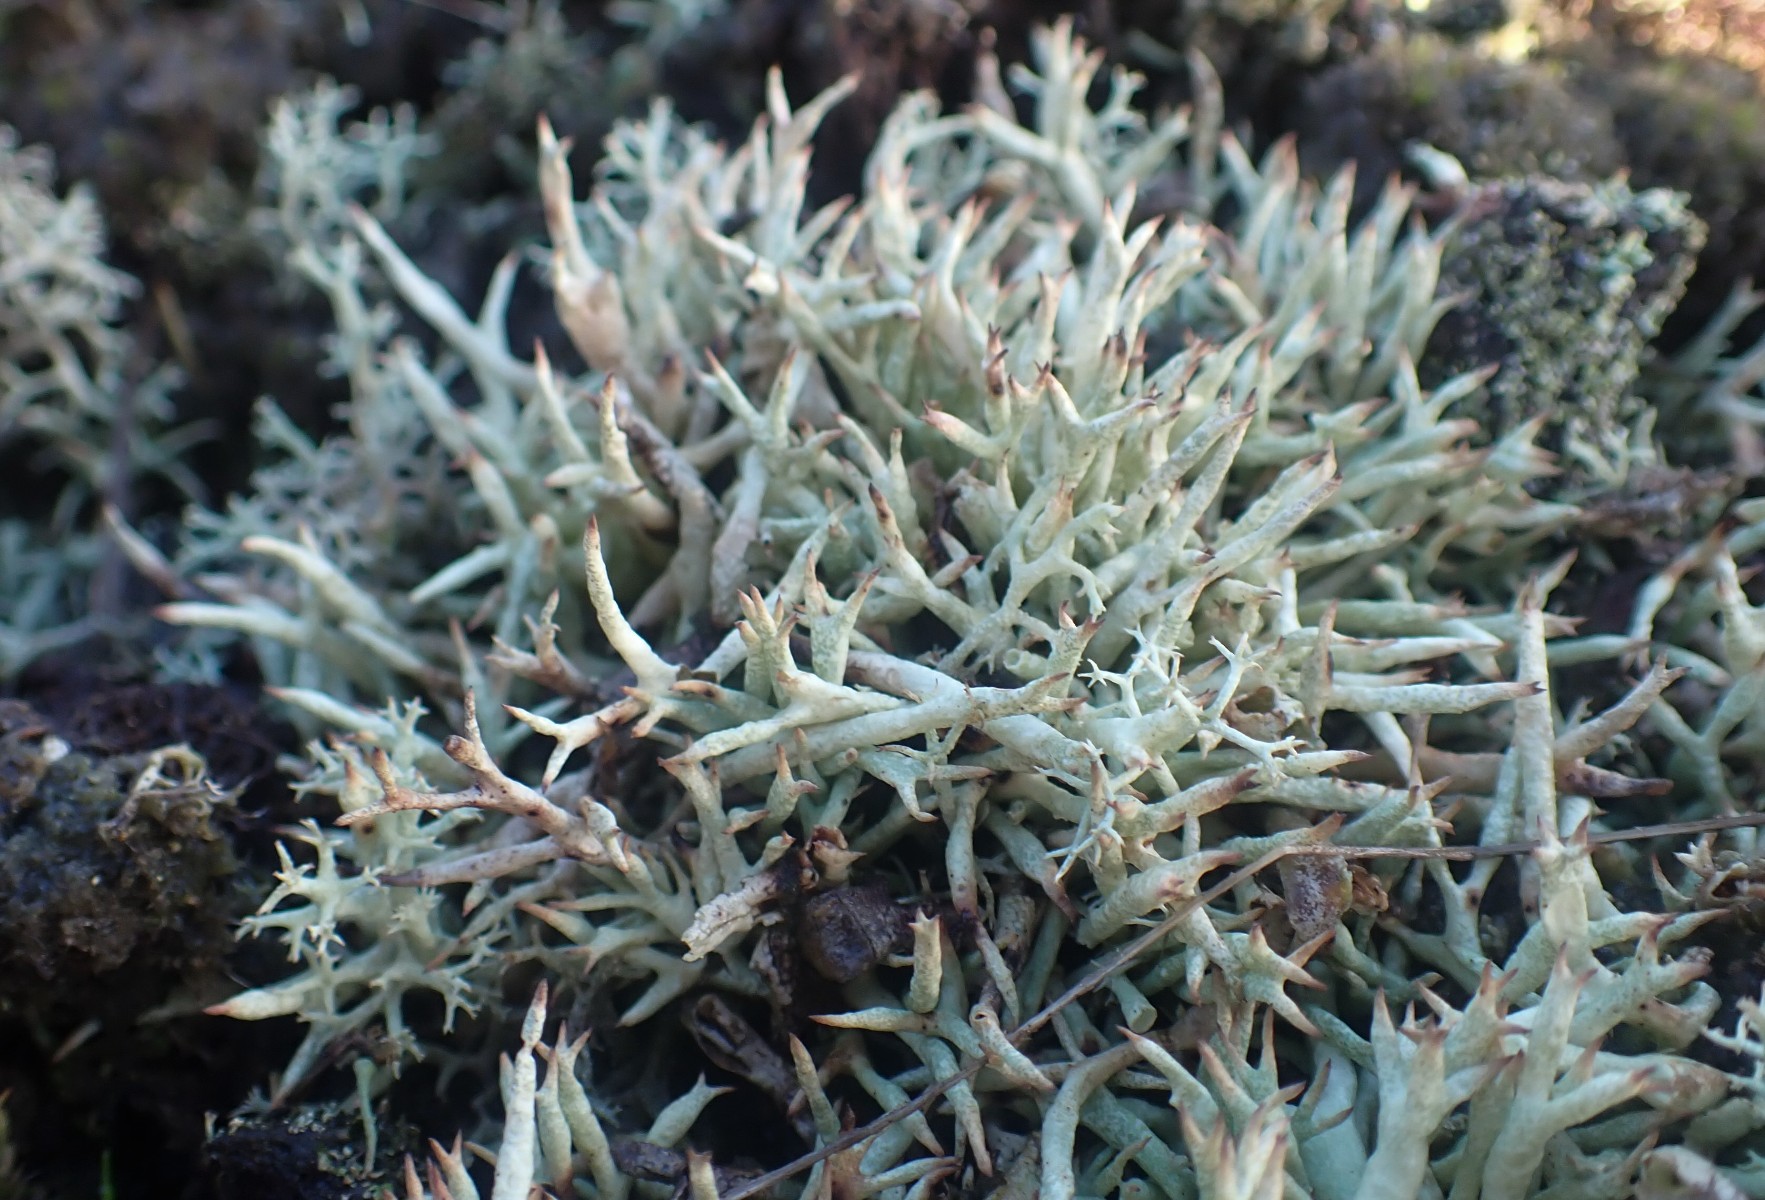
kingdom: Fungi
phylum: Ascomycota
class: Lecanoromycetes
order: Lecanorales
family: Cladoniaceae
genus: Cladonia
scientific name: Cladonia uncialis
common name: pigget bægerlav
